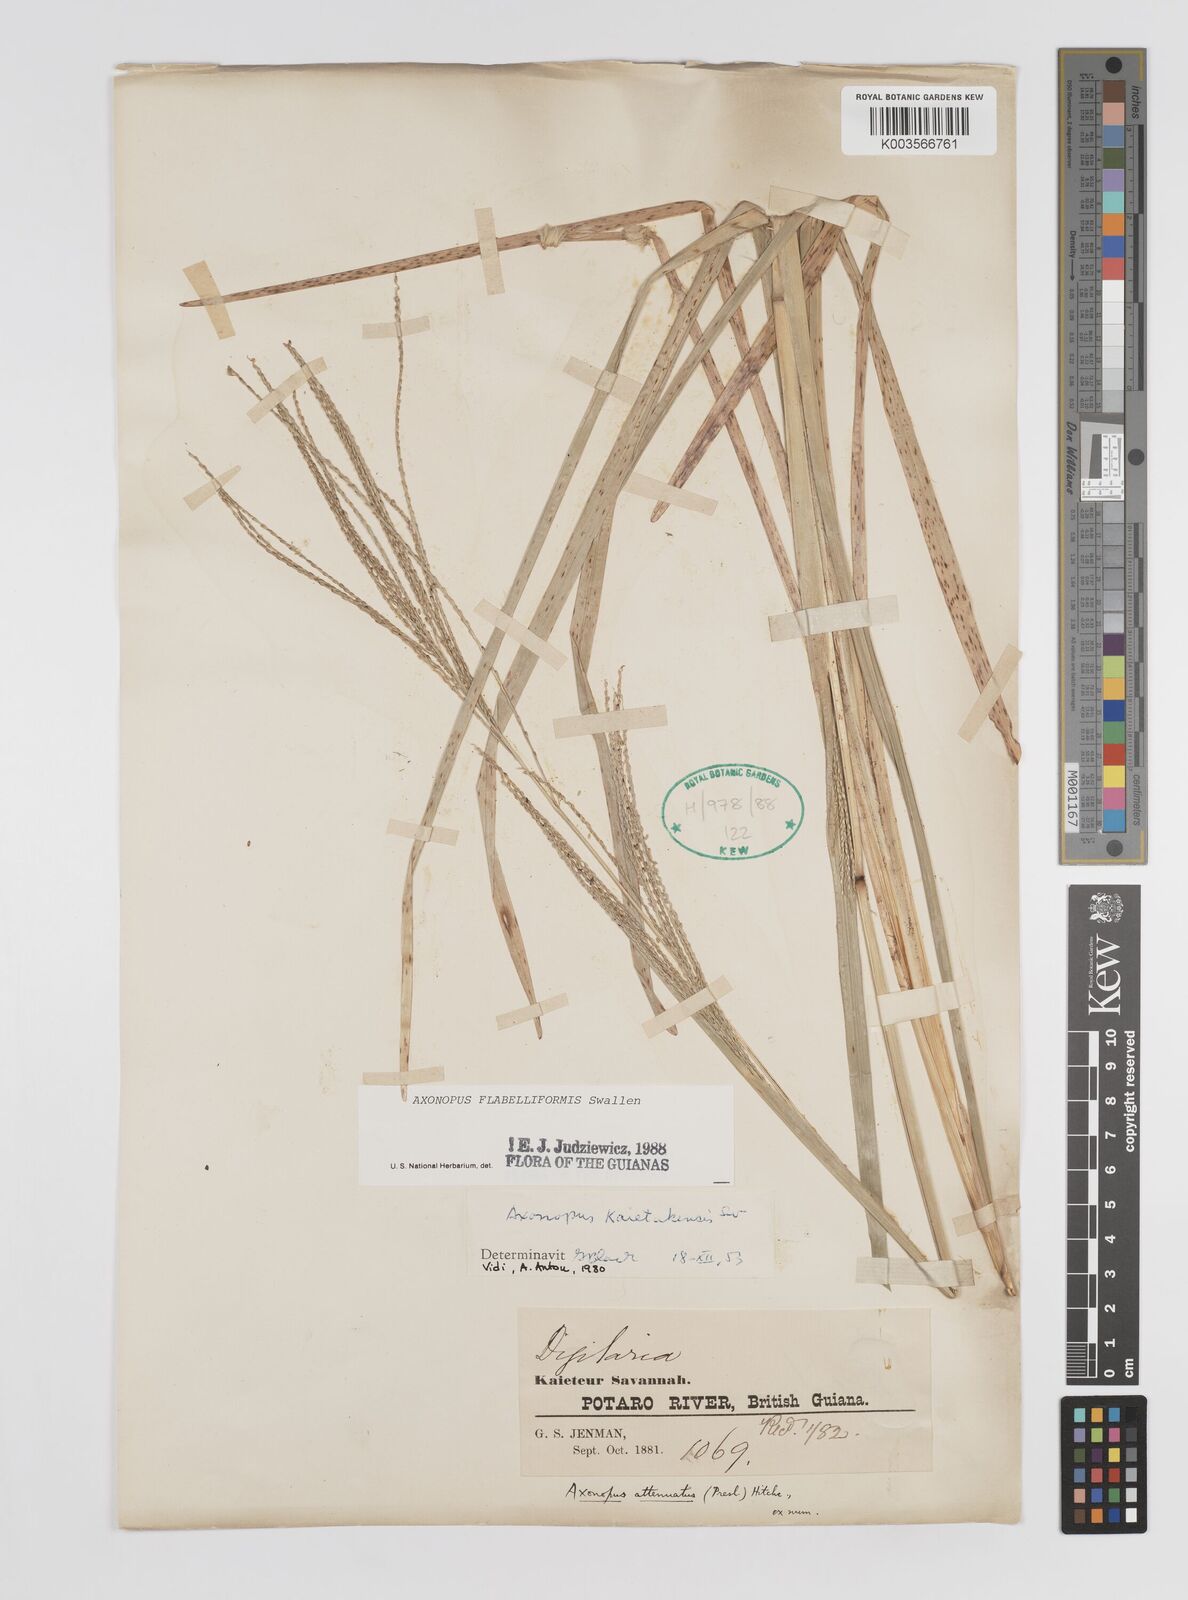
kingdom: Plantae
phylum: Tracheophyta
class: Liliopsida
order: Poales
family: Poaceae
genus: Axonopus
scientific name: Axonopus flabelliformis
